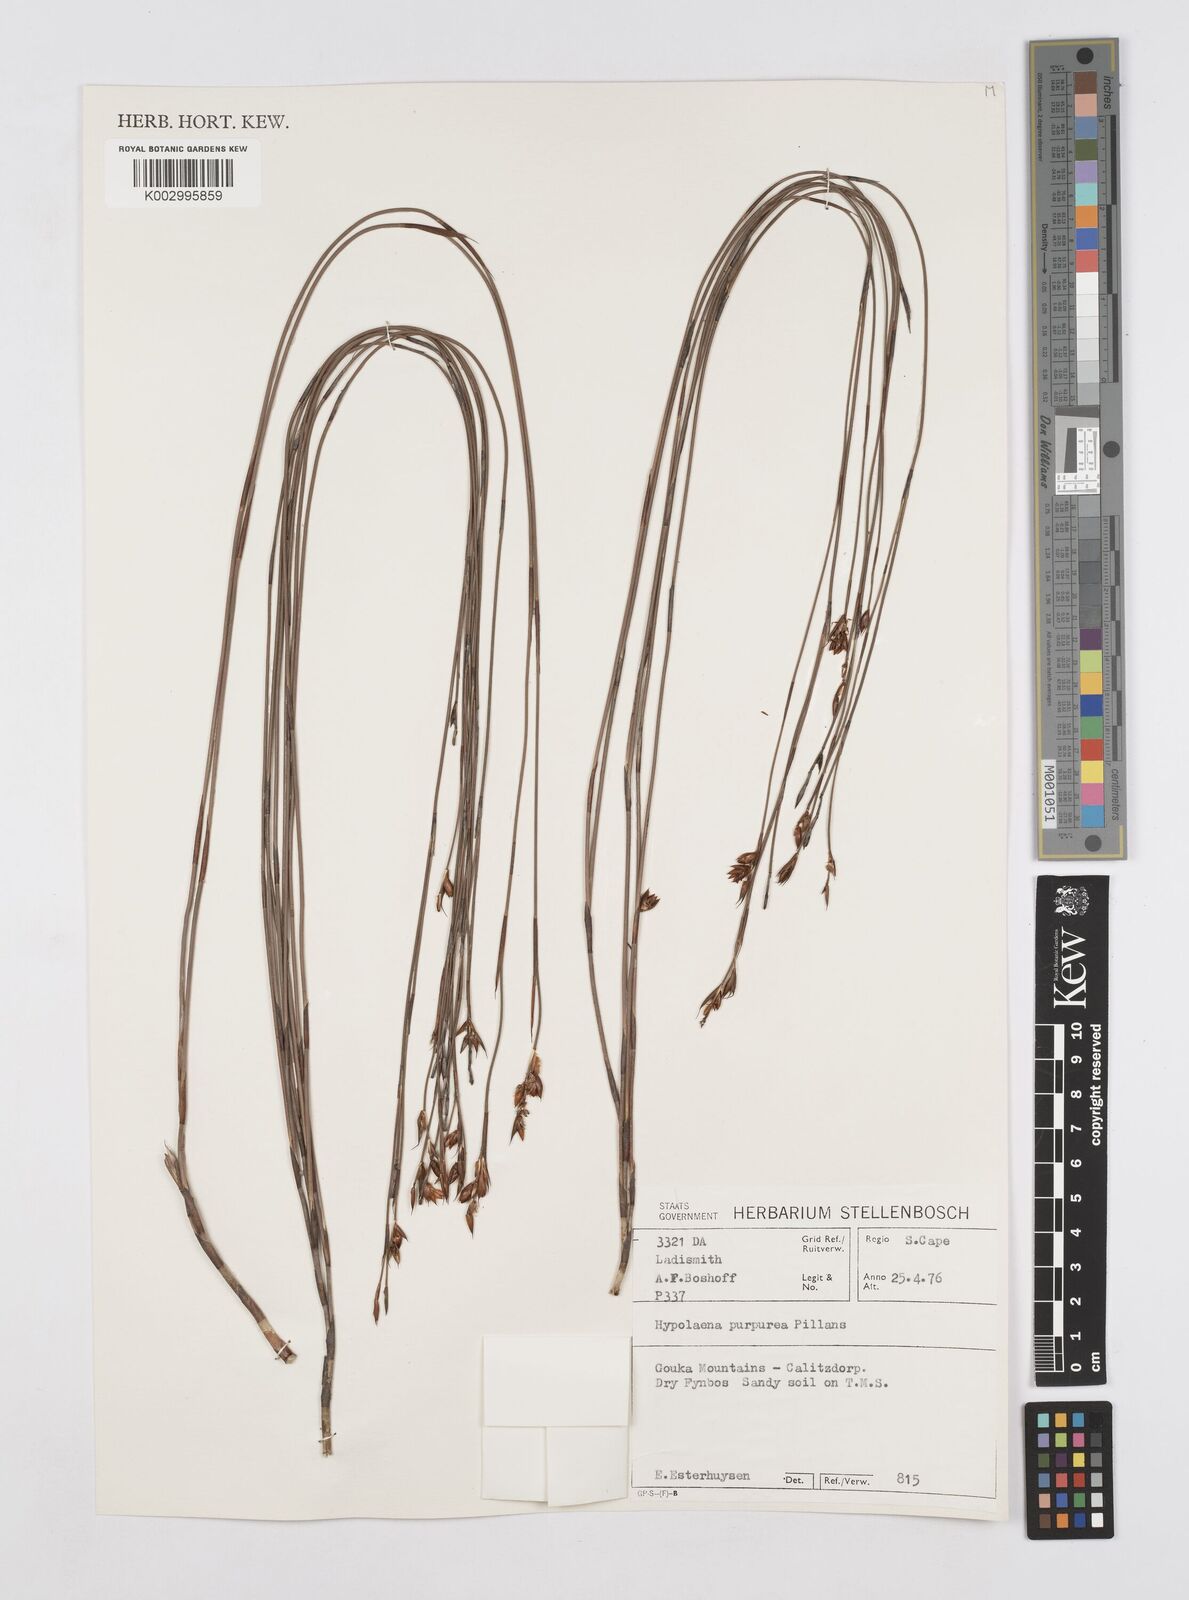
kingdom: Plantae
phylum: Tracheophyta
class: Liliopsida
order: Poales
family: Restionaceae
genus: Mastersiella
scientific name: Mastersiella purpurea
